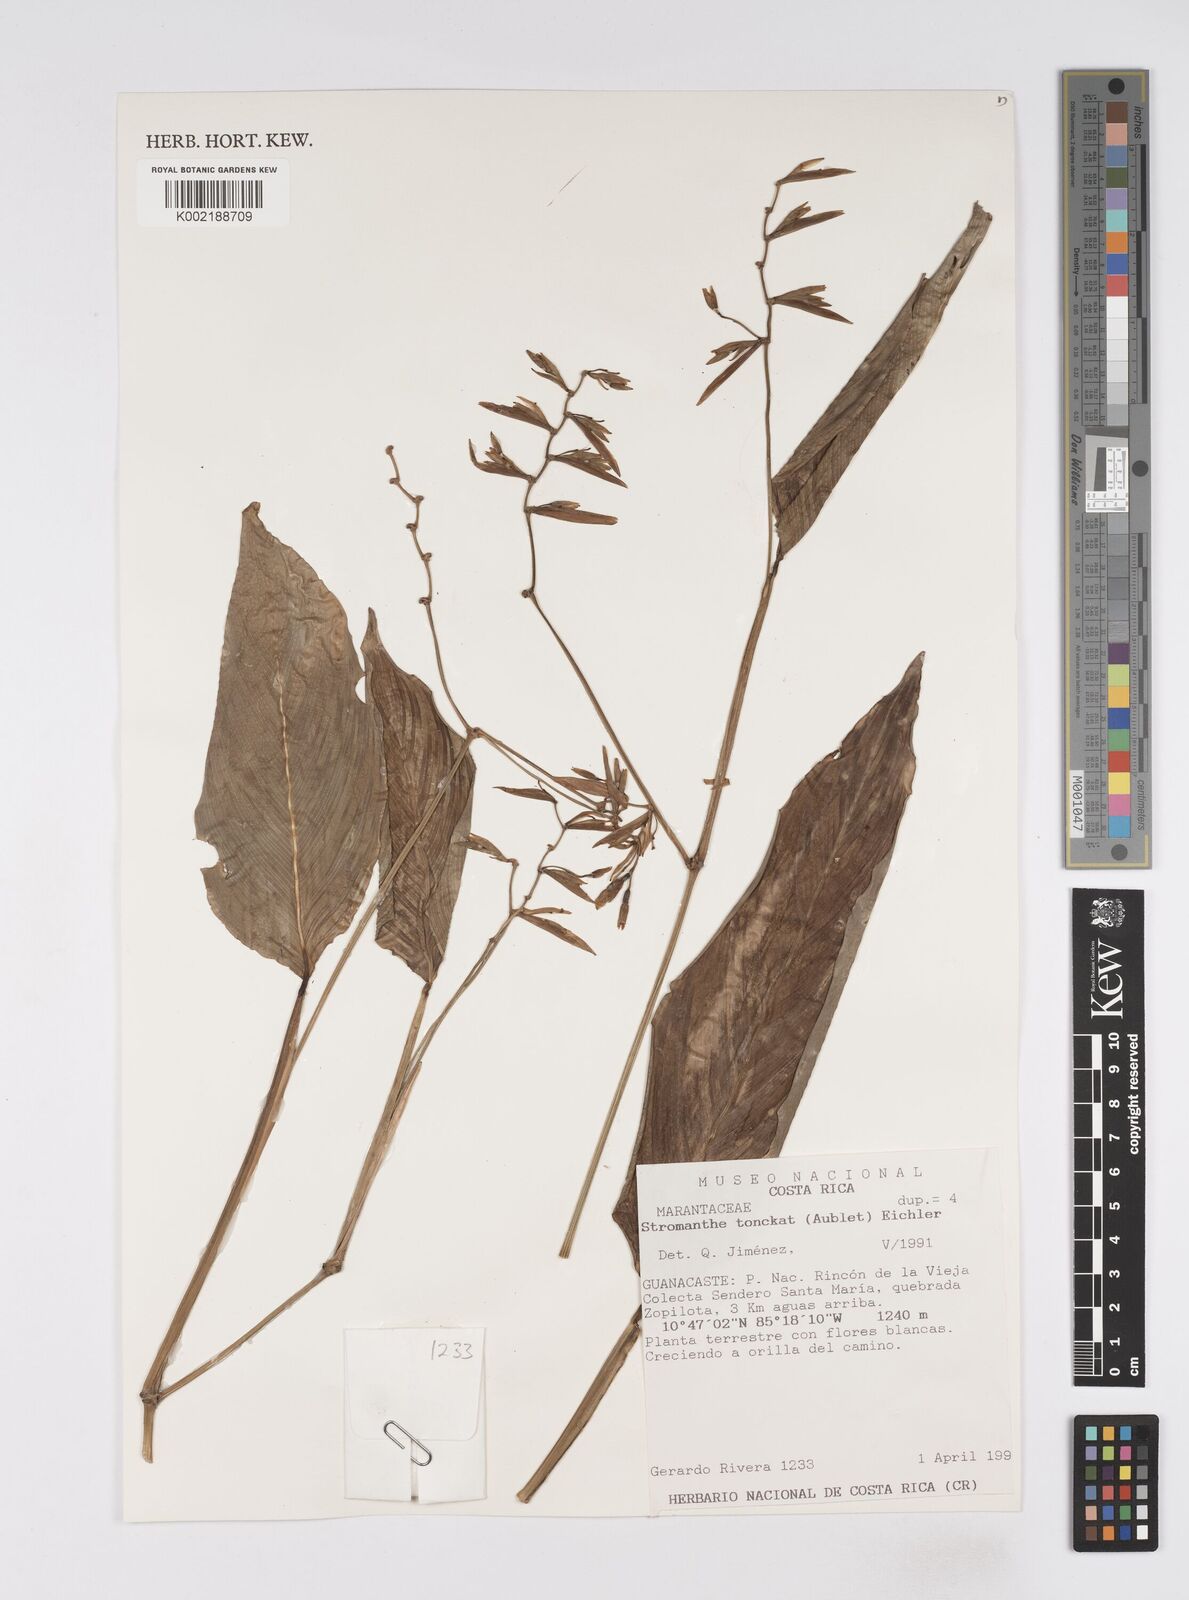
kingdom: Plantae
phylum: Tracheophyta
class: Liliopsida
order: Zingiberales
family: Marantaceae
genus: Stromanthe
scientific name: Stromanthe tonckat
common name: Stromanthe
